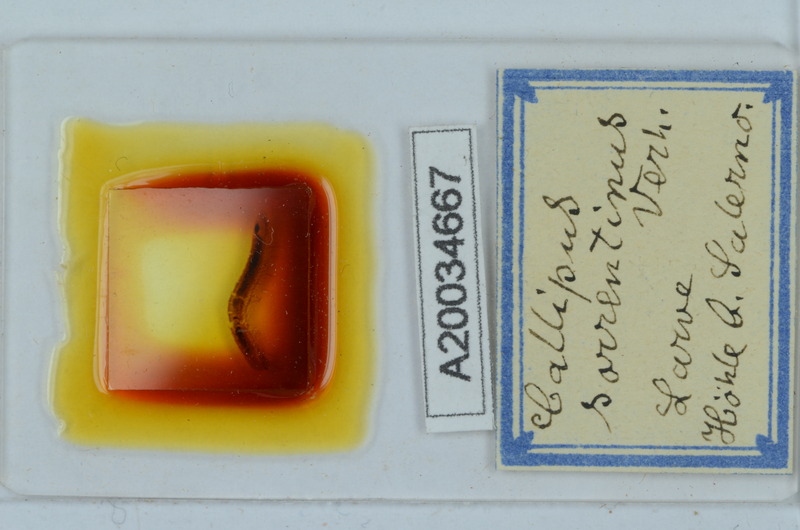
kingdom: Animalia
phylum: Arthropoda
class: Diplopoda
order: Callipodida
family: Callipodidae
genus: Callipus
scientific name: Callipus foetidissimus
